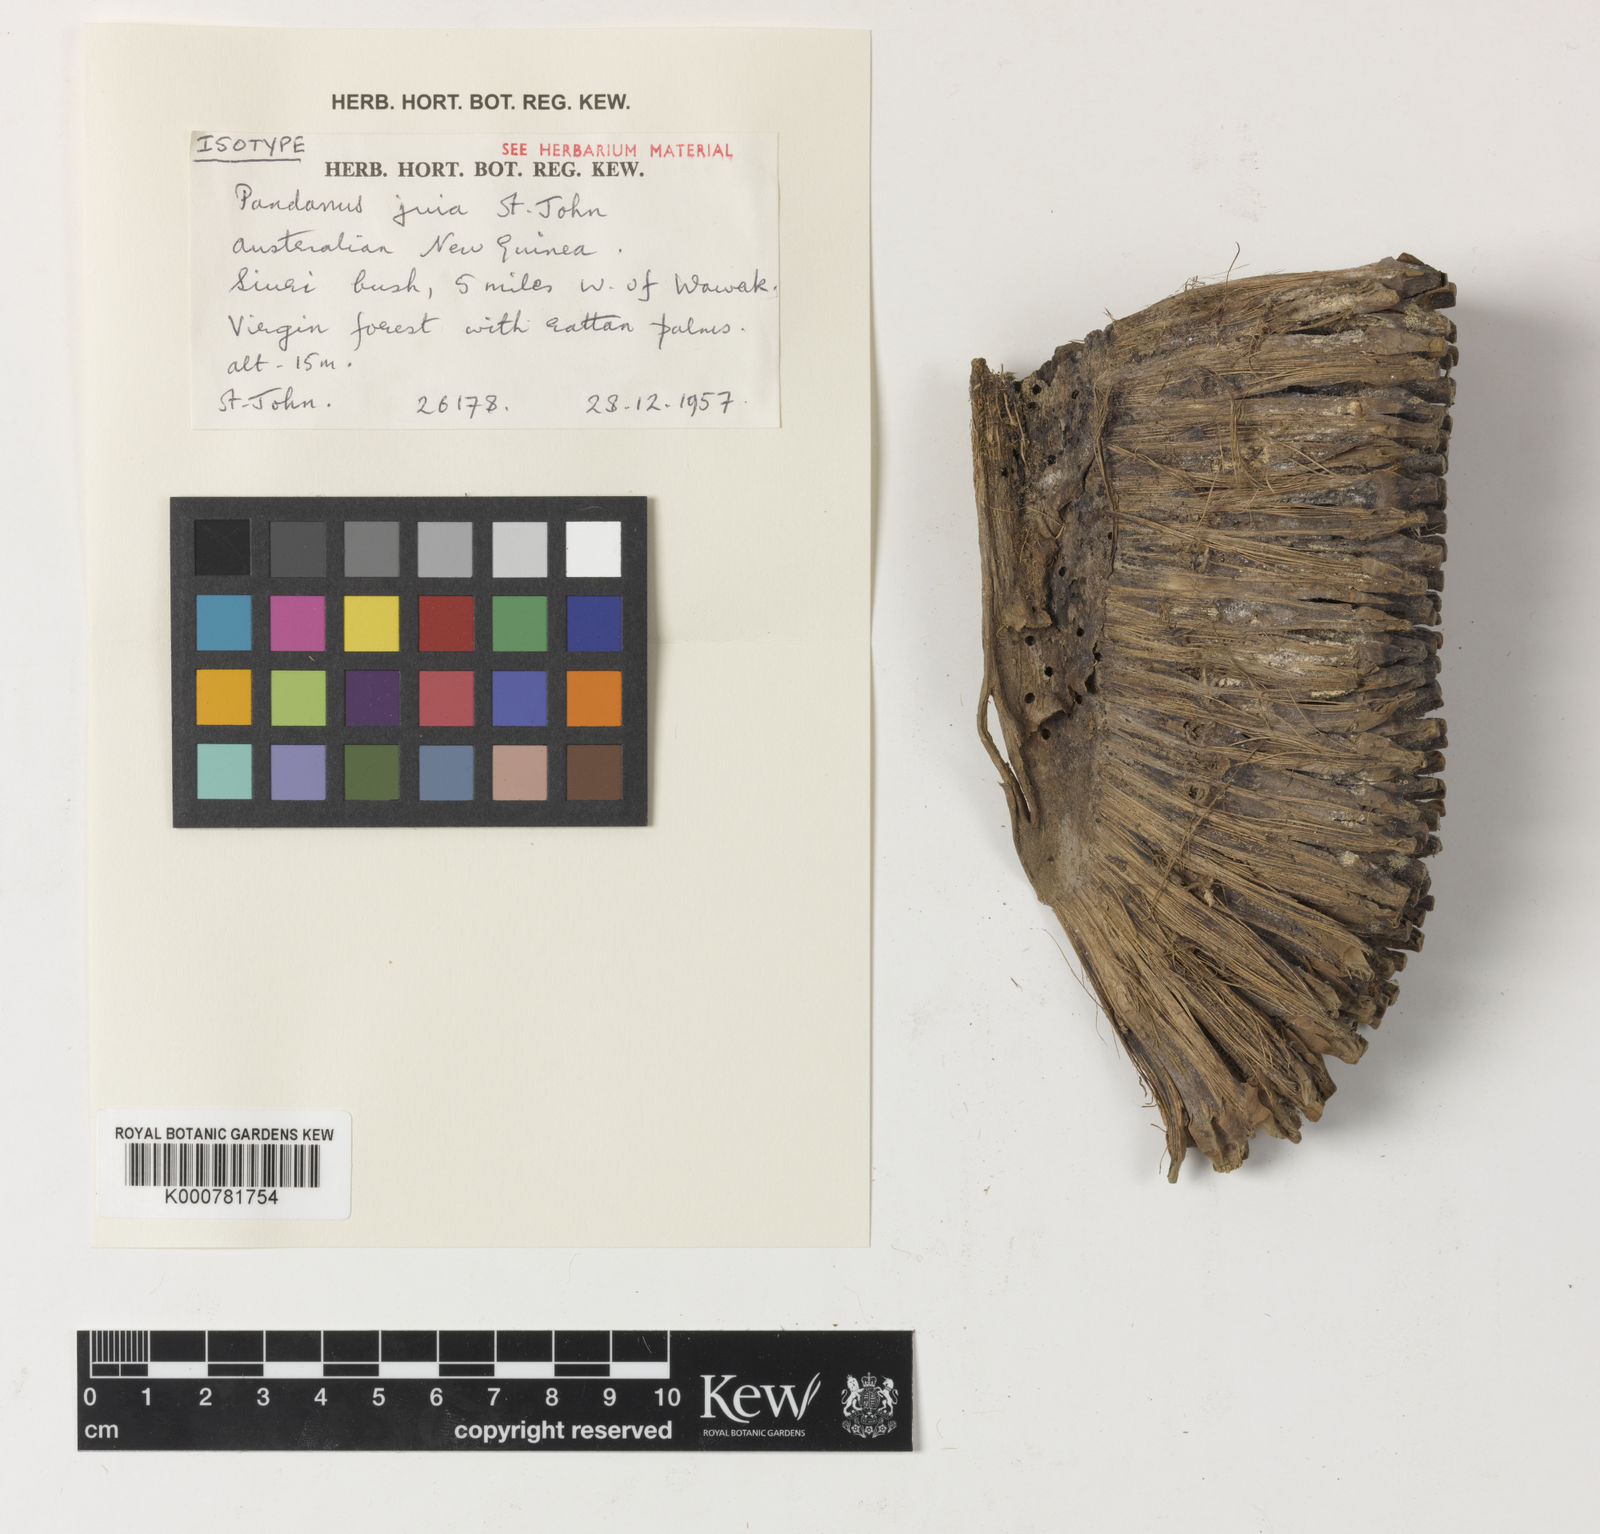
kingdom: Plantae
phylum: Tracheophyta
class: Liliopsida
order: Pandanales
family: Pandanaceae
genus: Pandanus
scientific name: Pandanus
